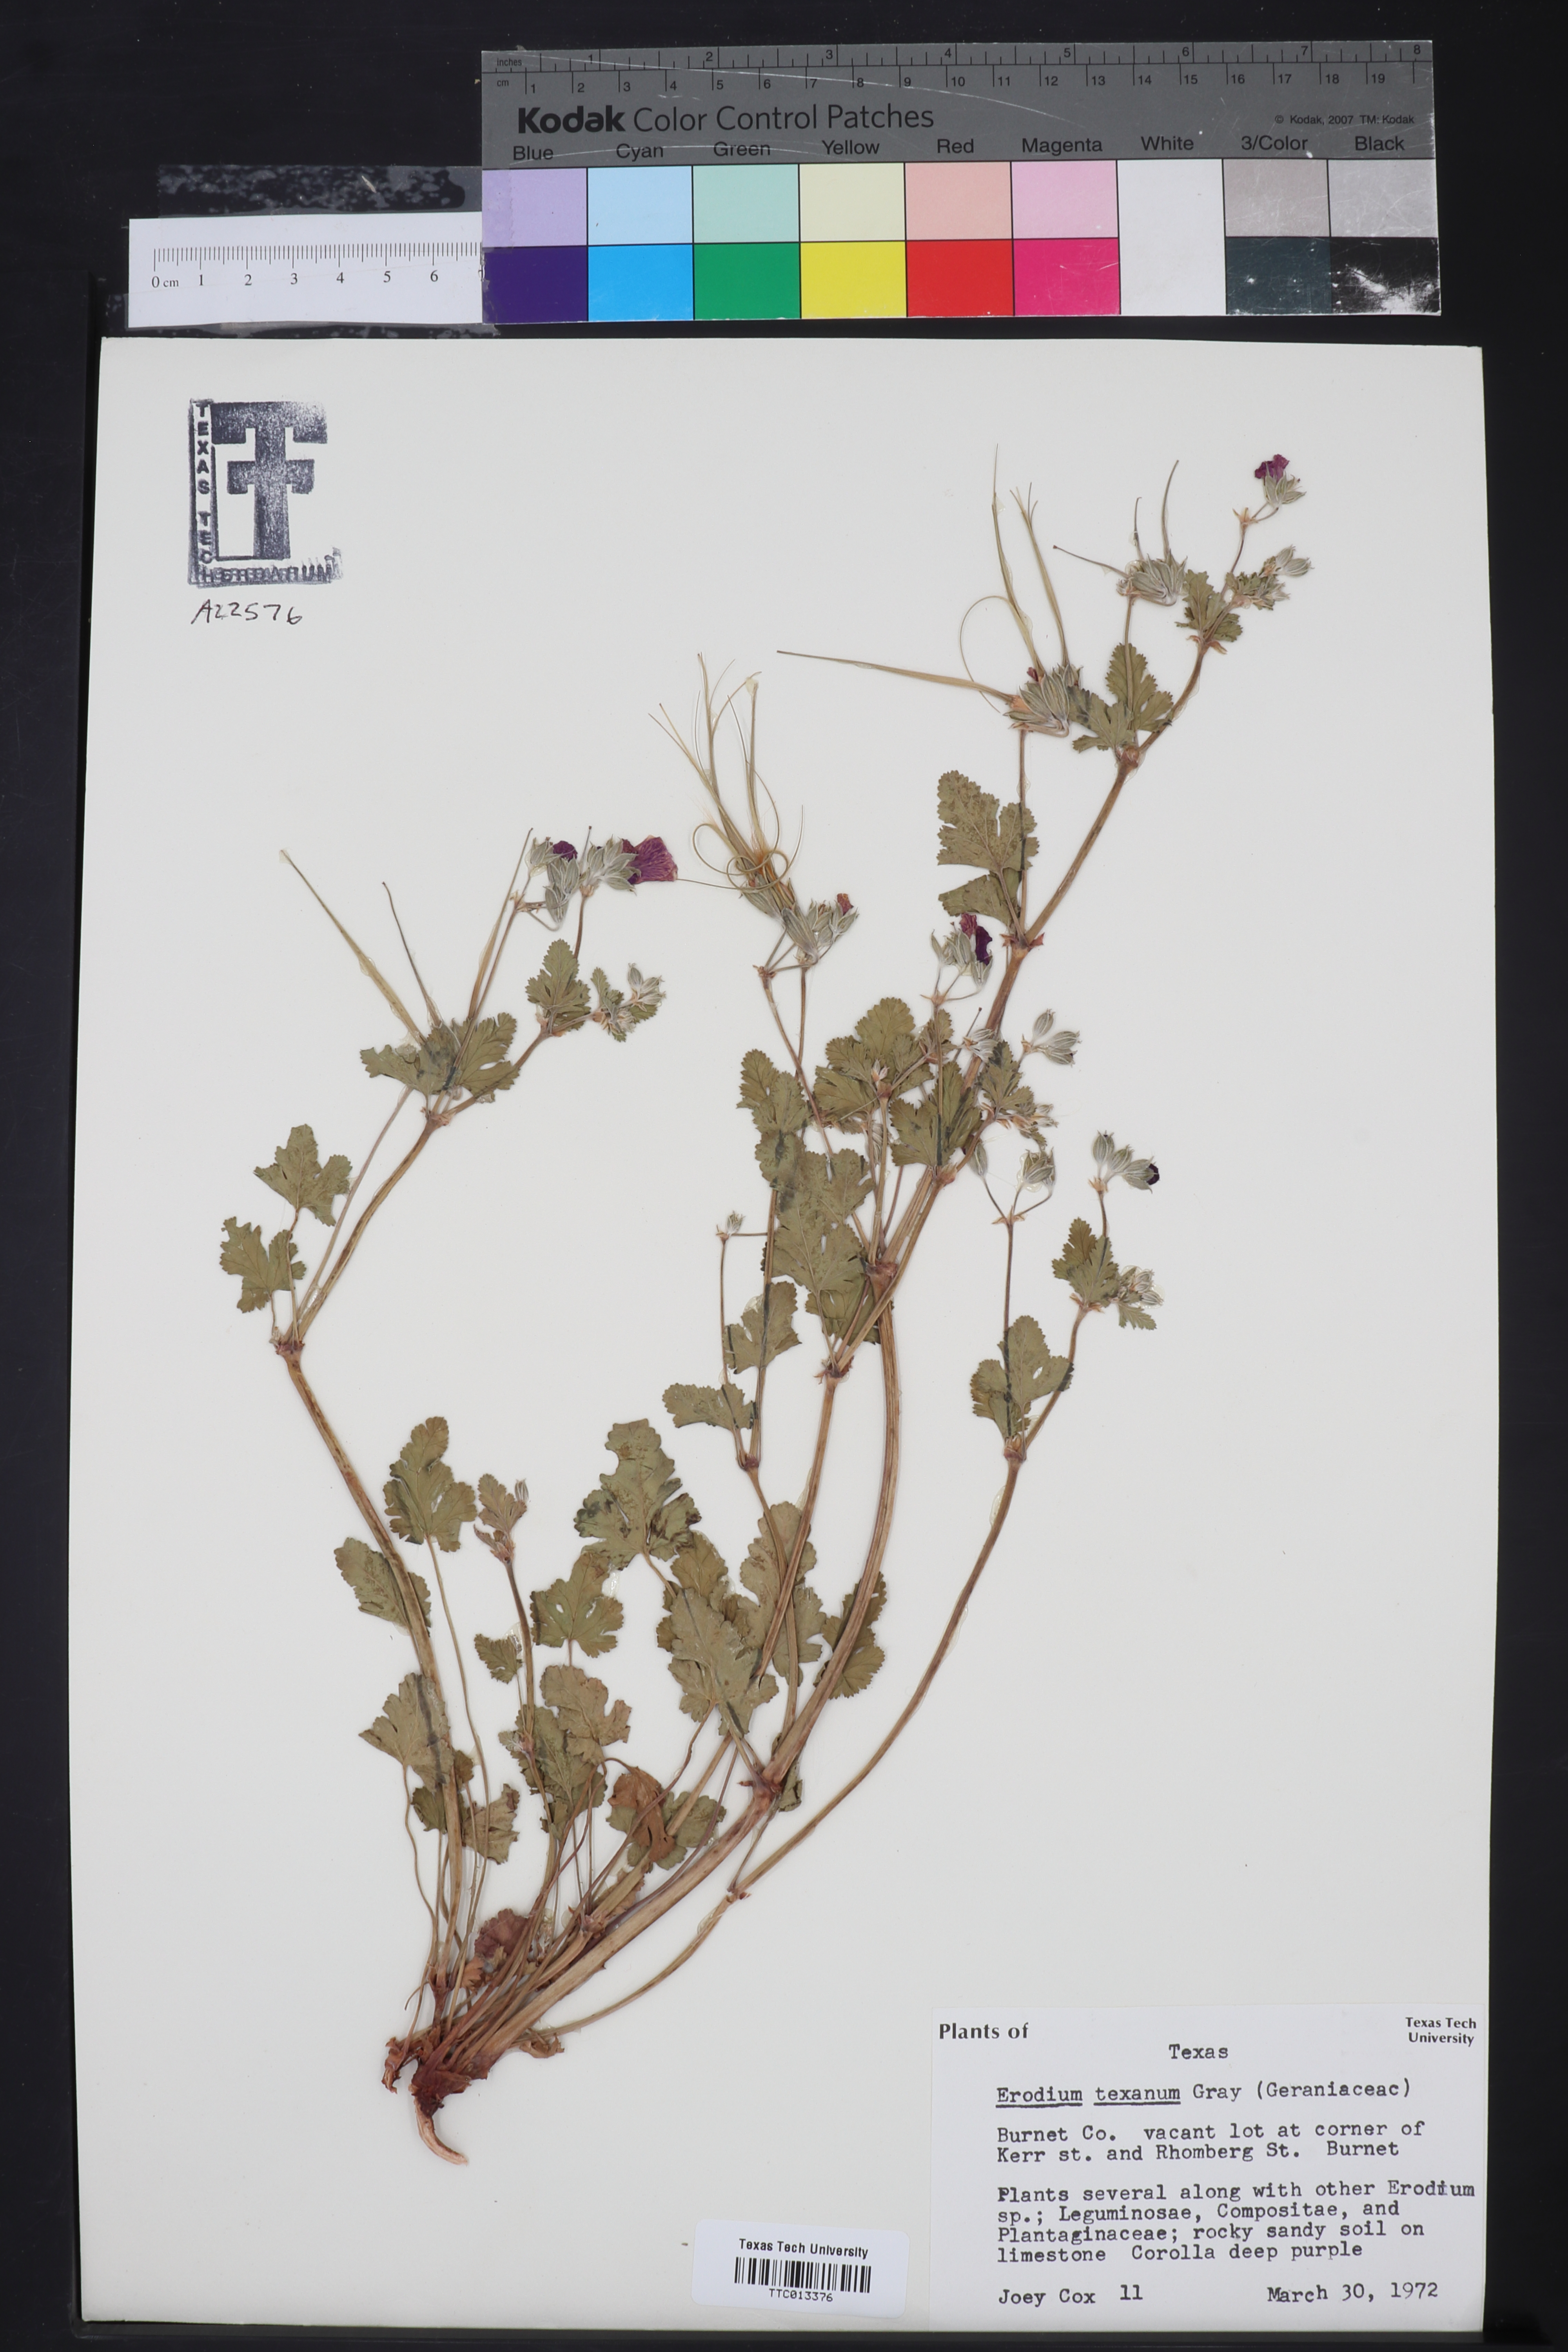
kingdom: Plantae
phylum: Tracheophyta
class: Magnoliopsida
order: Geraniales
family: Geraniaceae
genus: Erodium
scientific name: Erodium texanum
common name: Texas stork's-bill
